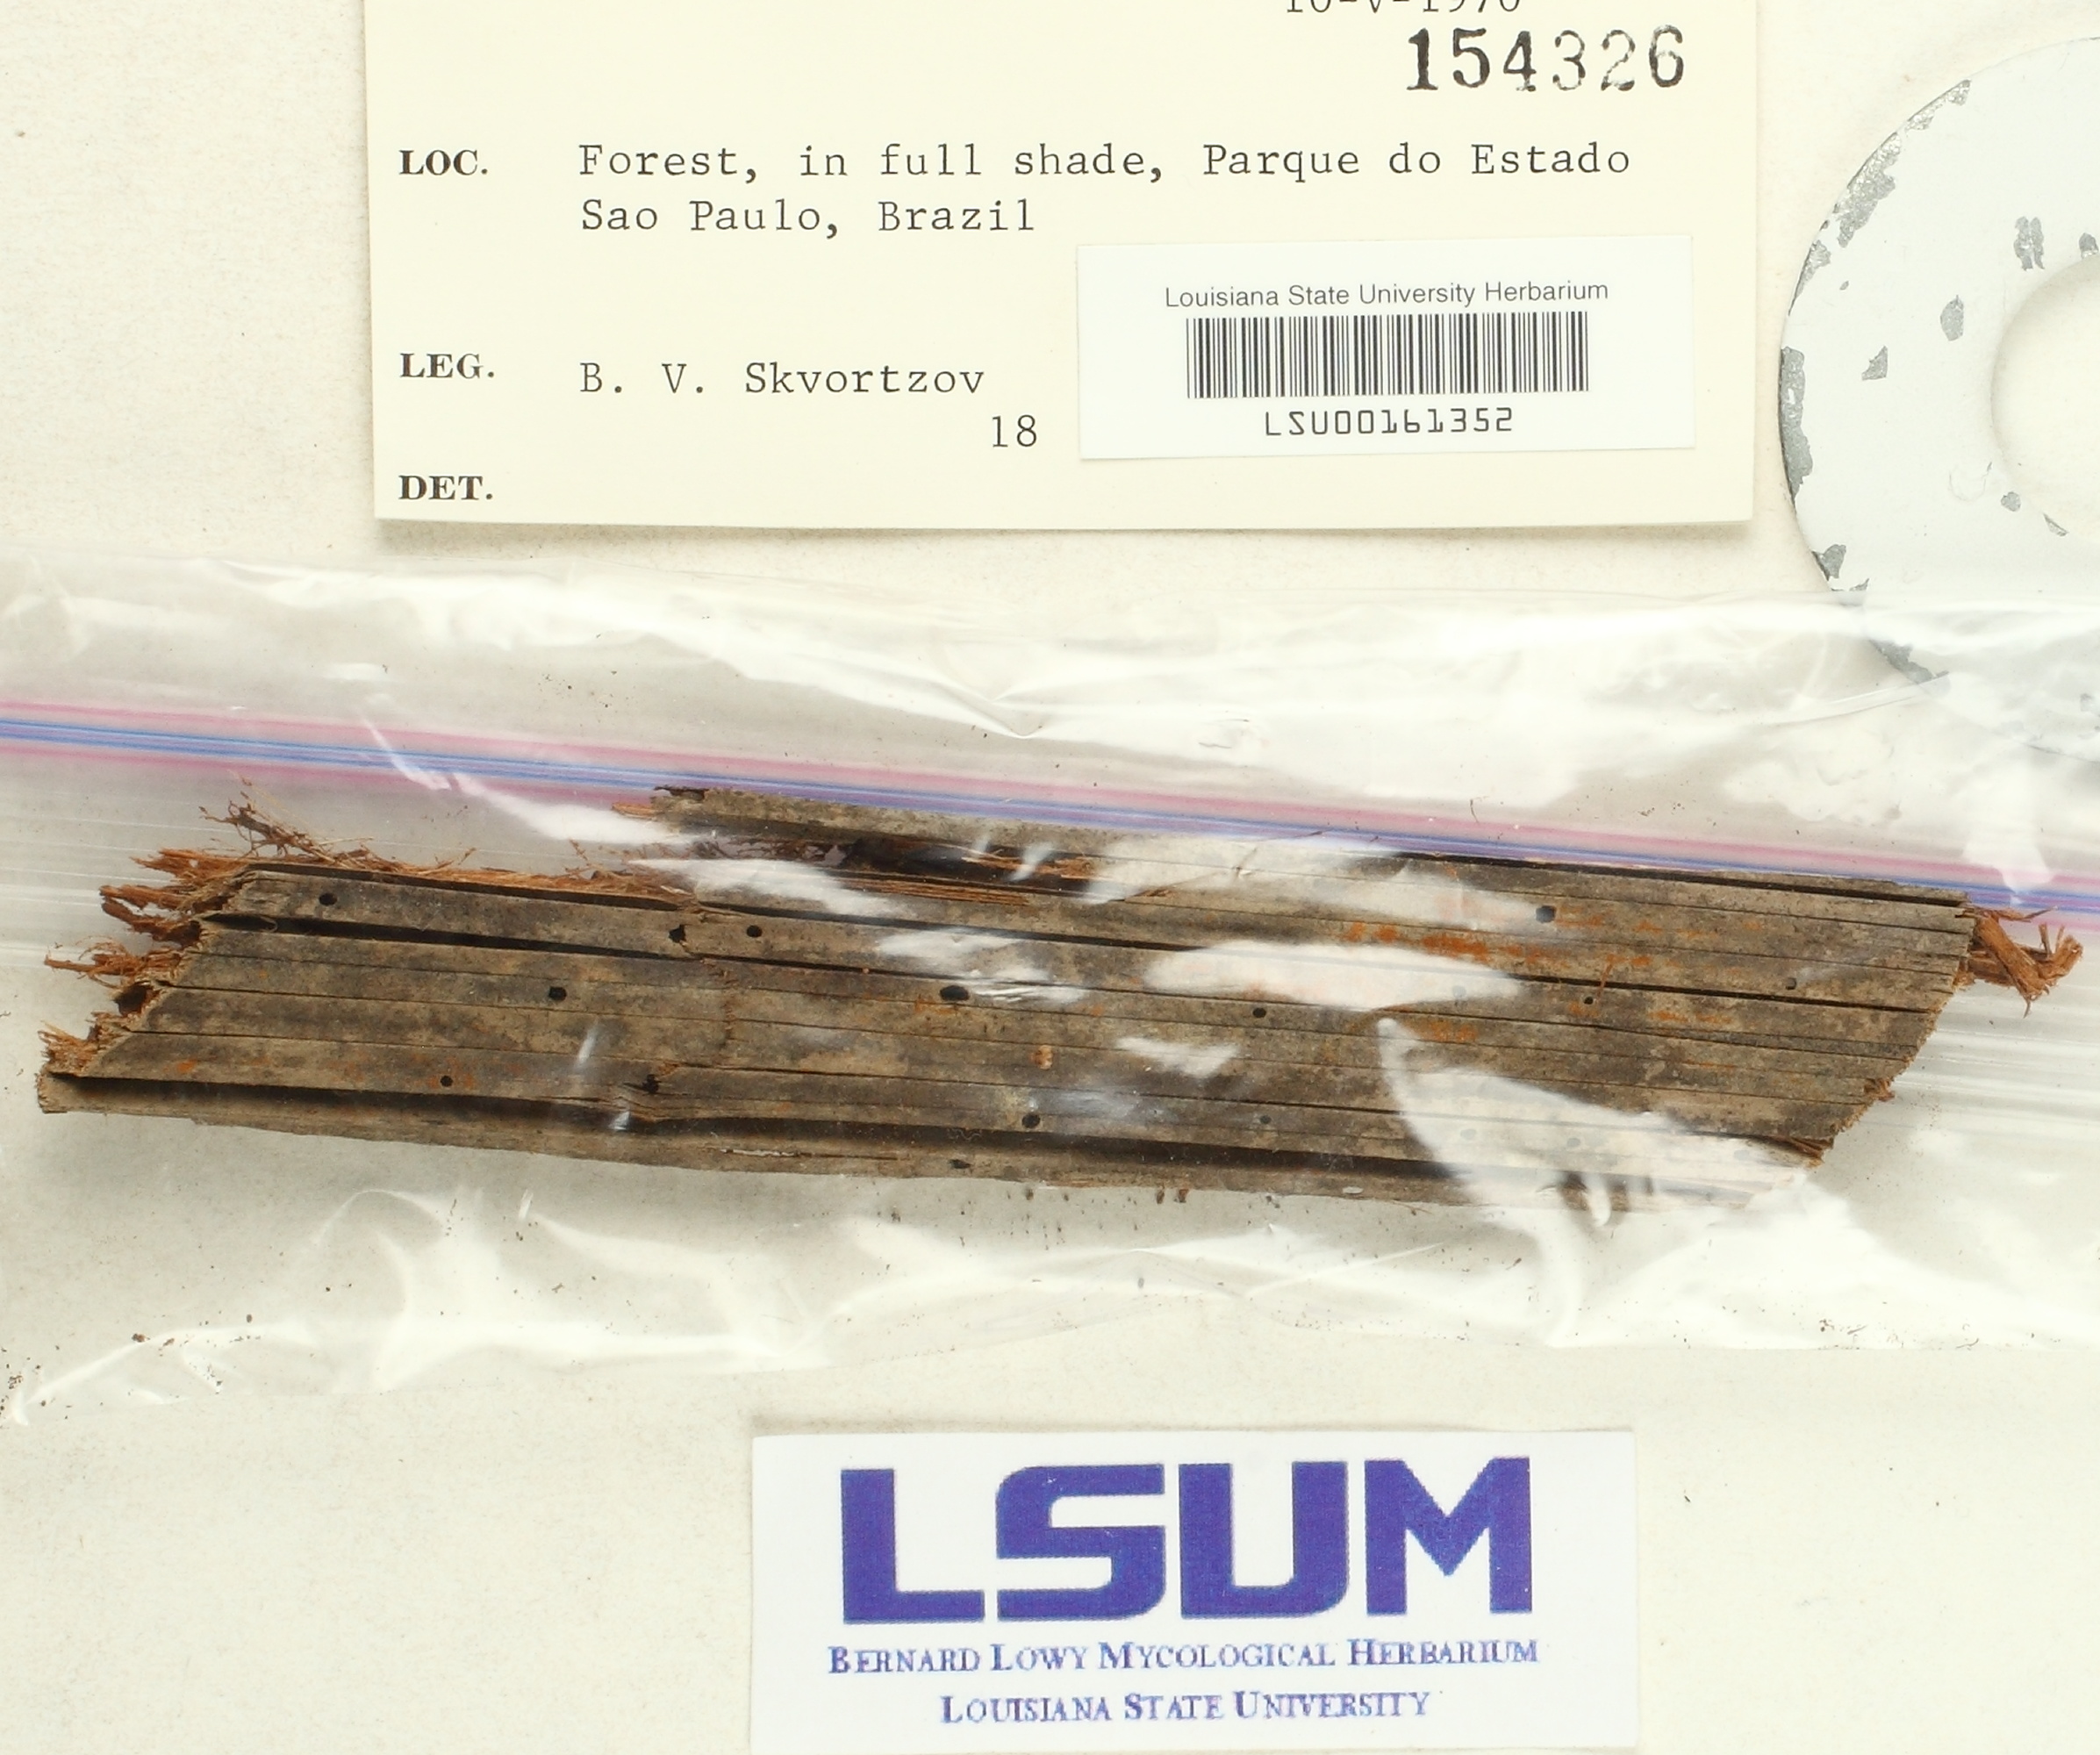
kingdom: Fungi
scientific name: Fungi
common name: Fungi
